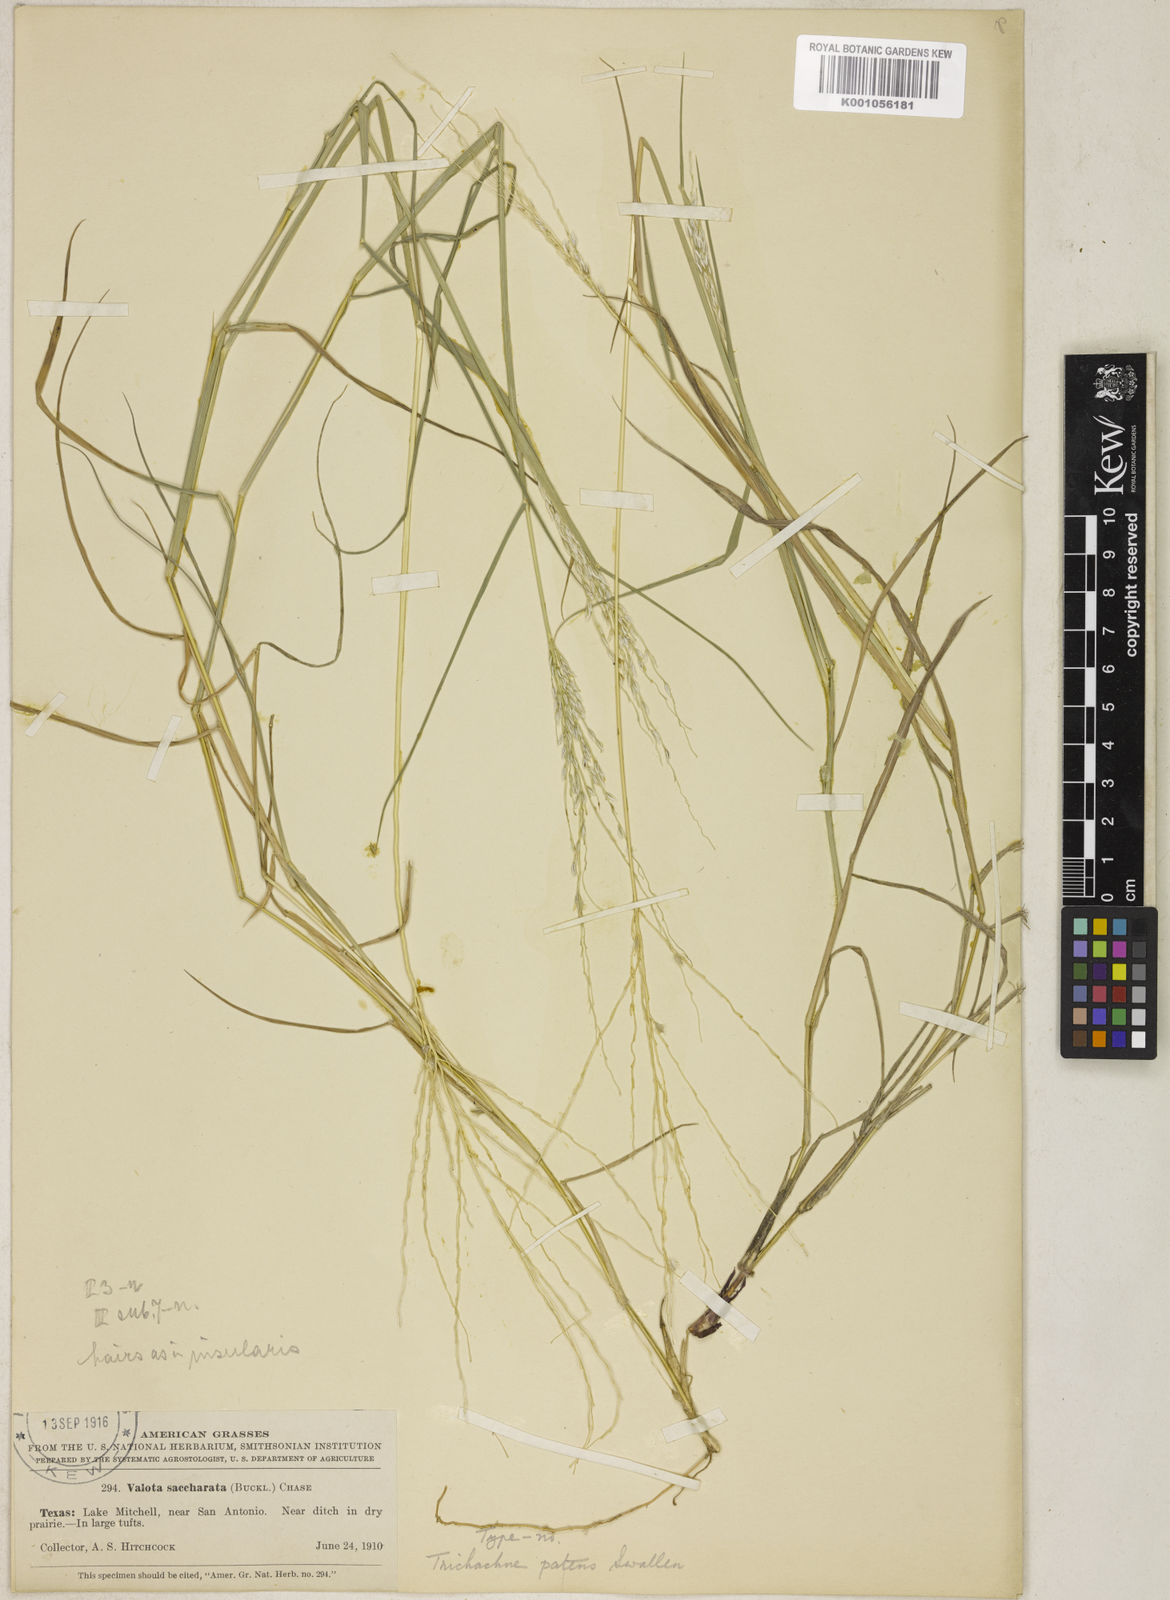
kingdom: Plantae
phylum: Tracheophyta
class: Liliopsida
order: Poales
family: Poaceae
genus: Digitaria
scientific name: Digitaria patens
